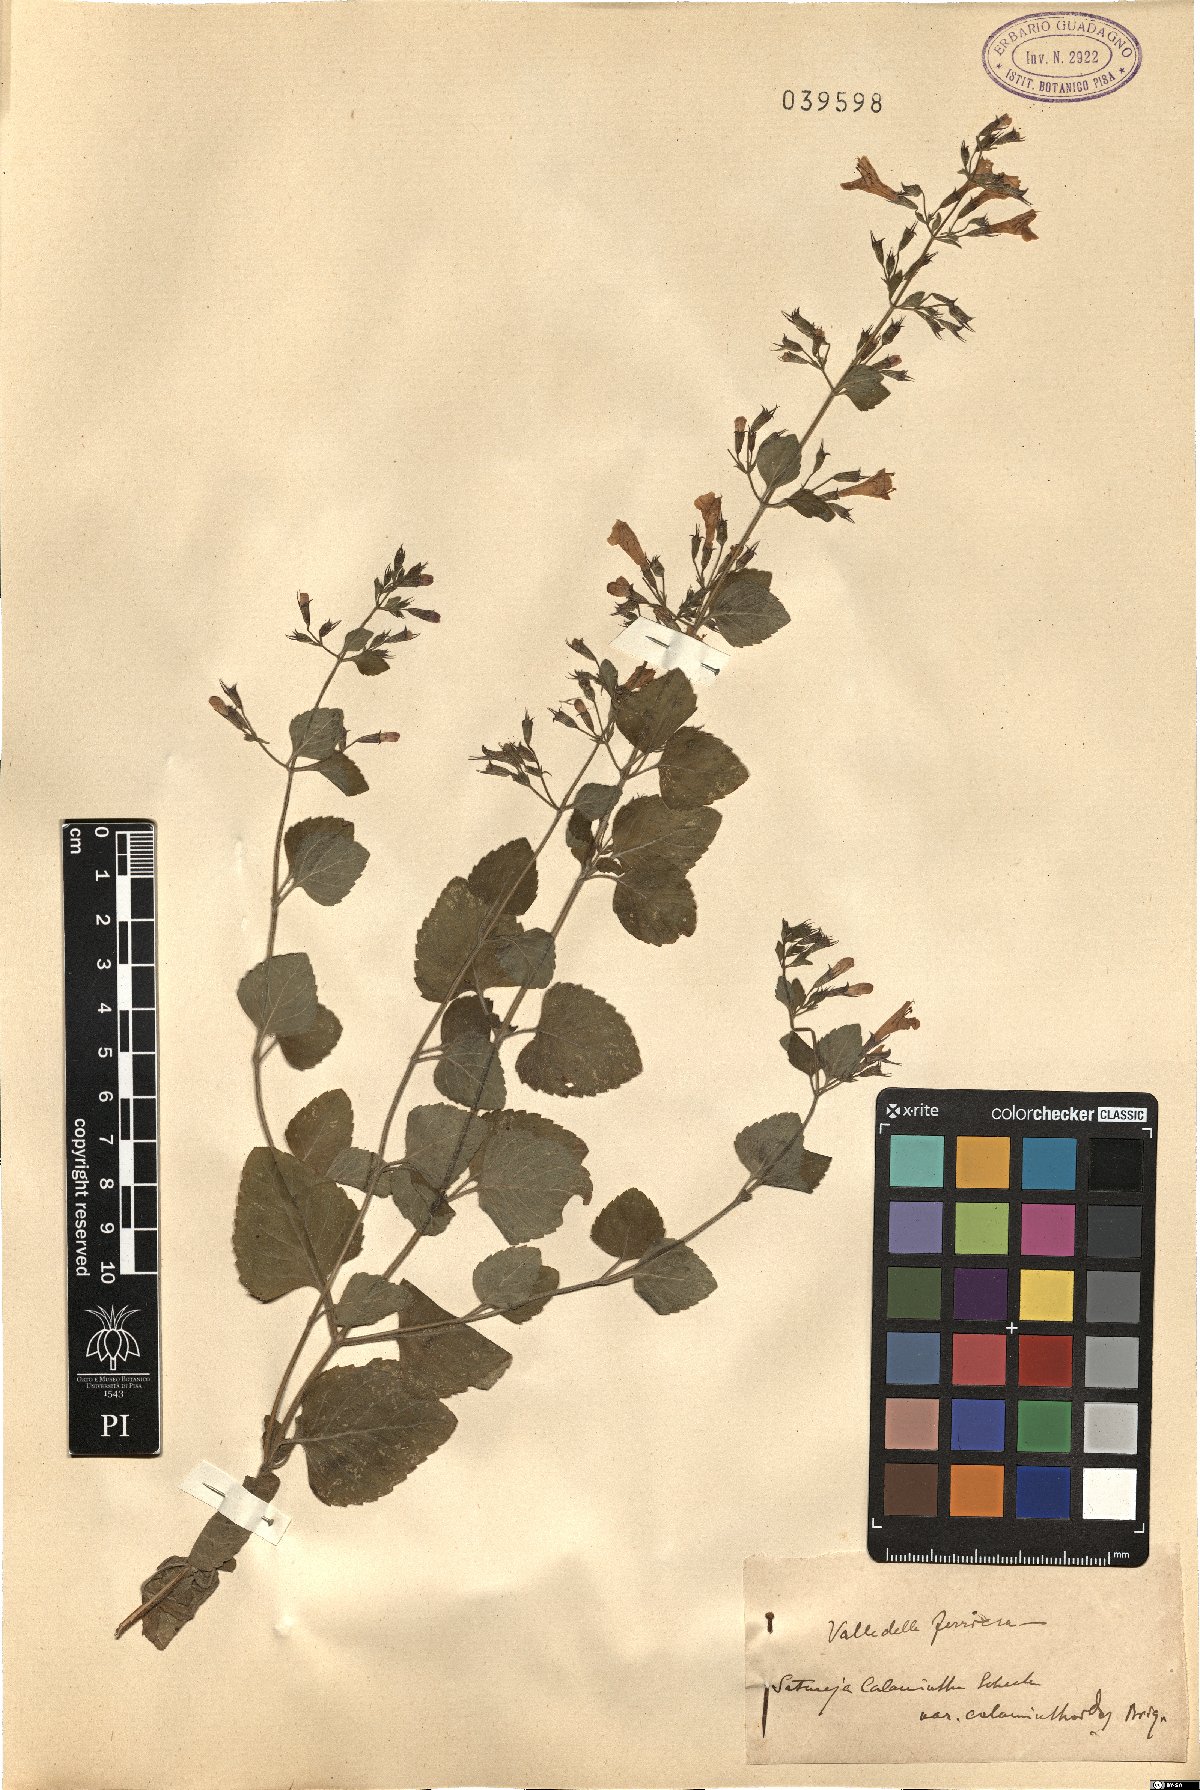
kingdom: Plantae
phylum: Tracheophyta
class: Magnoliopsida
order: Lamiales
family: Lamiaceae
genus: Clinopodium
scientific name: Clinopodium nepeta
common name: Lesser calamint
